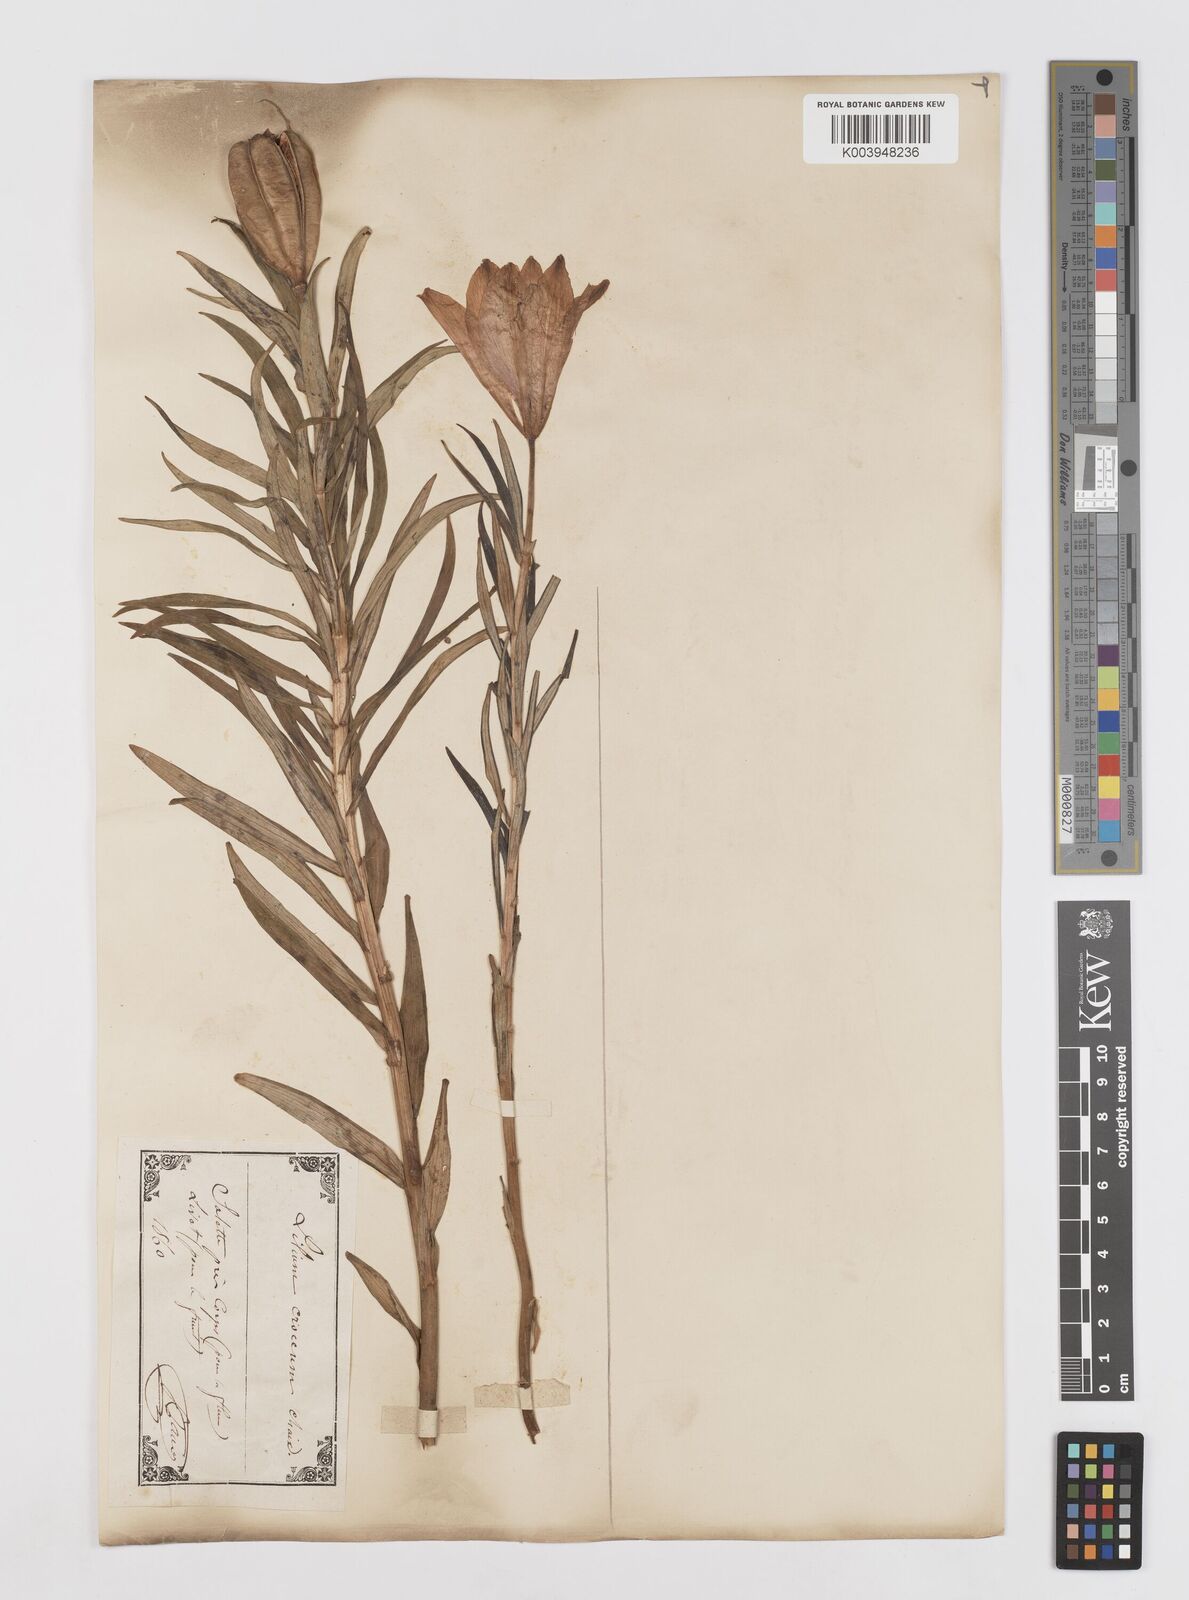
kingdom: Plantae
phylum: Tracheophyta
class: Liliopsida
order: Liliales
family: Liliaceae
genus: Lilium
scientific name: Lilium bulbiferum
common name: Orange lily
